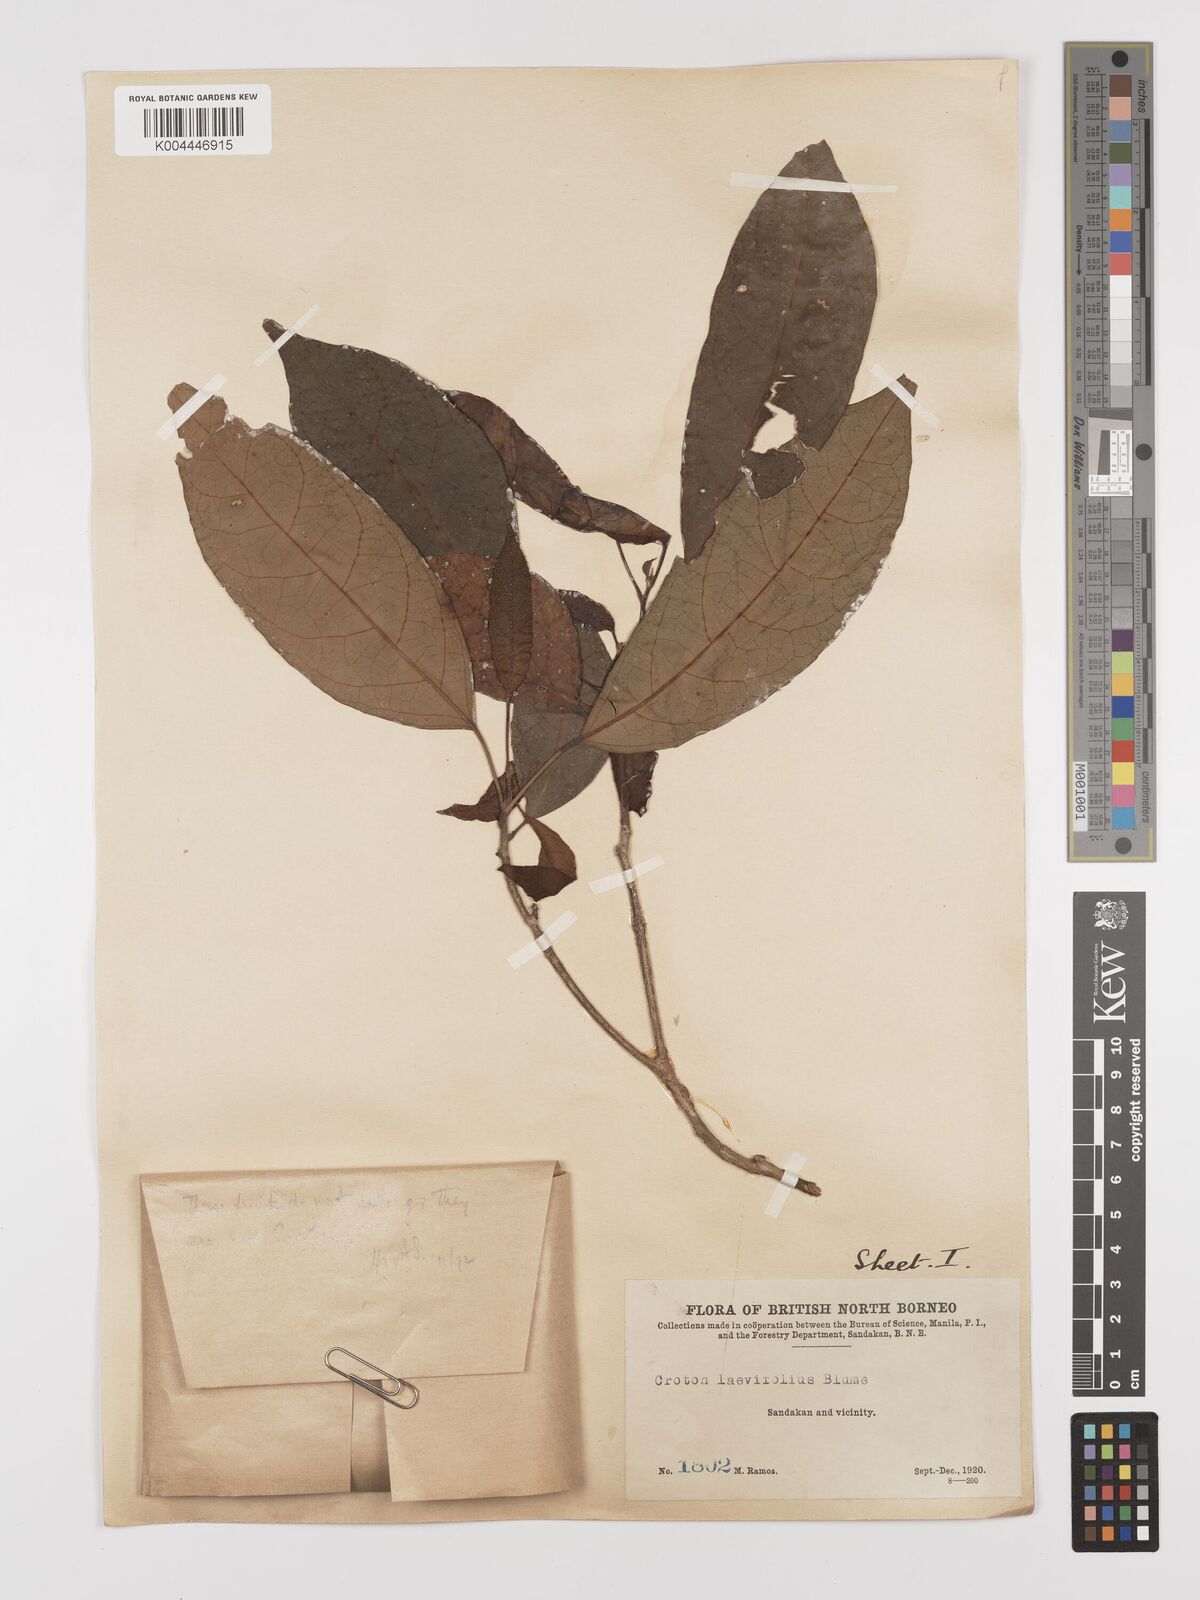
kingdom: Plantae
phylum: Tracheophyta
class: Magnoliopsida
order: Malpighiales
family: Euphorbiaceae
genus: Croton
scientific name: Croton oblongus
